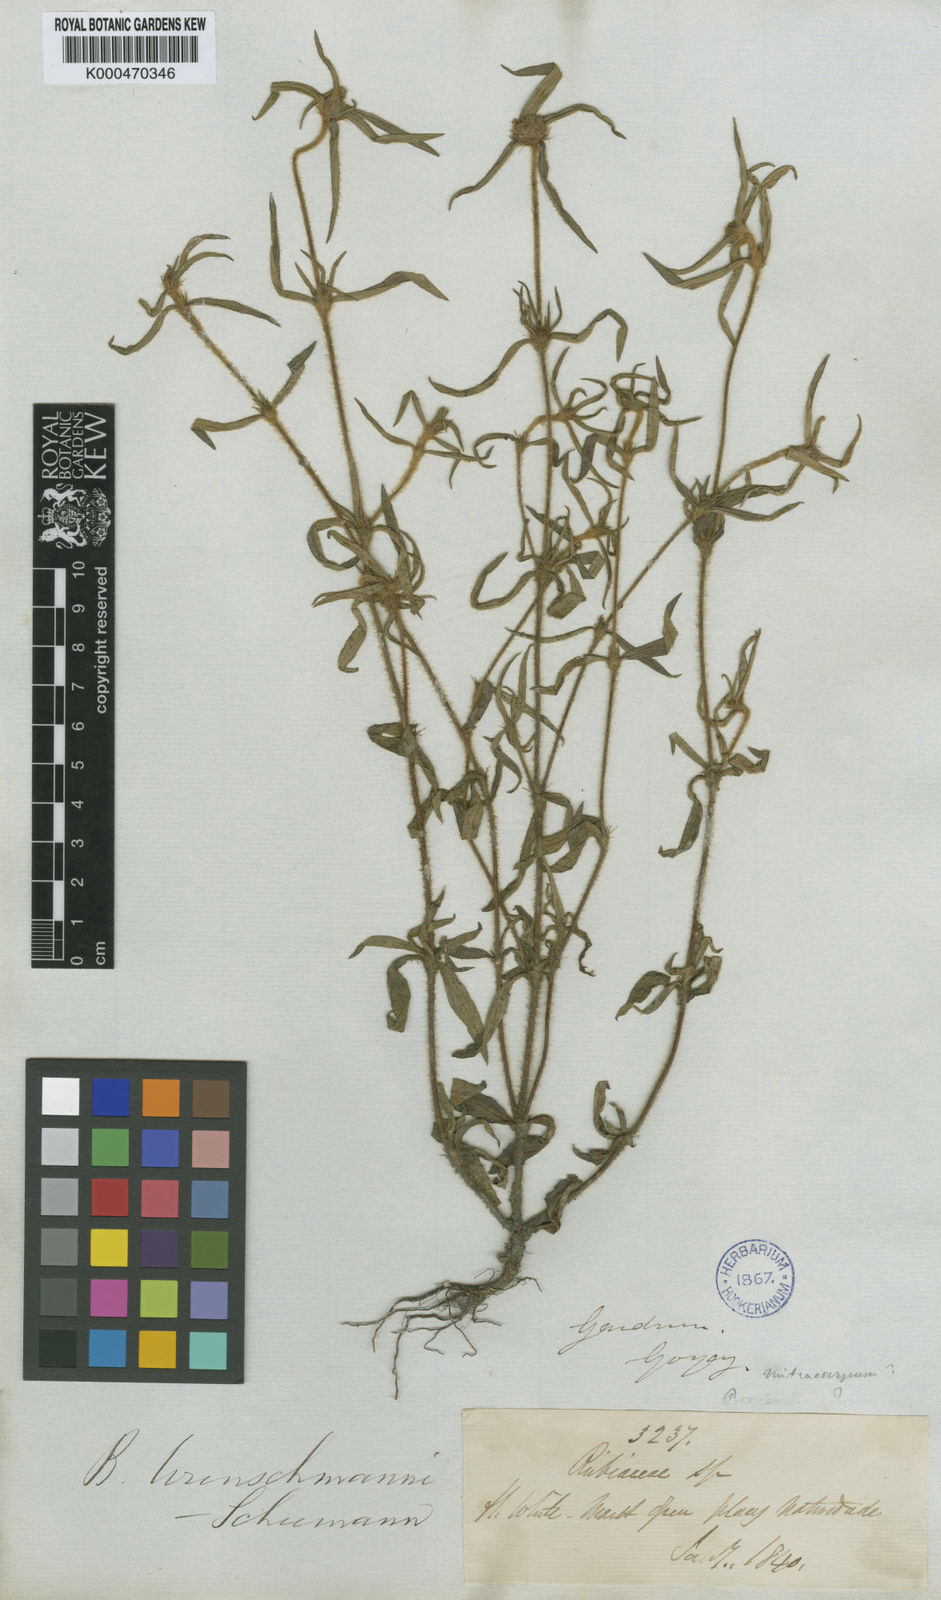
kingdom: Plantae
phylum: Tracheophyta
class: Magnoliopsida
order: Gentianales
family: Rubiaceae
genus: Spermacoce
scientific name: Spermacoce wunschmannii
